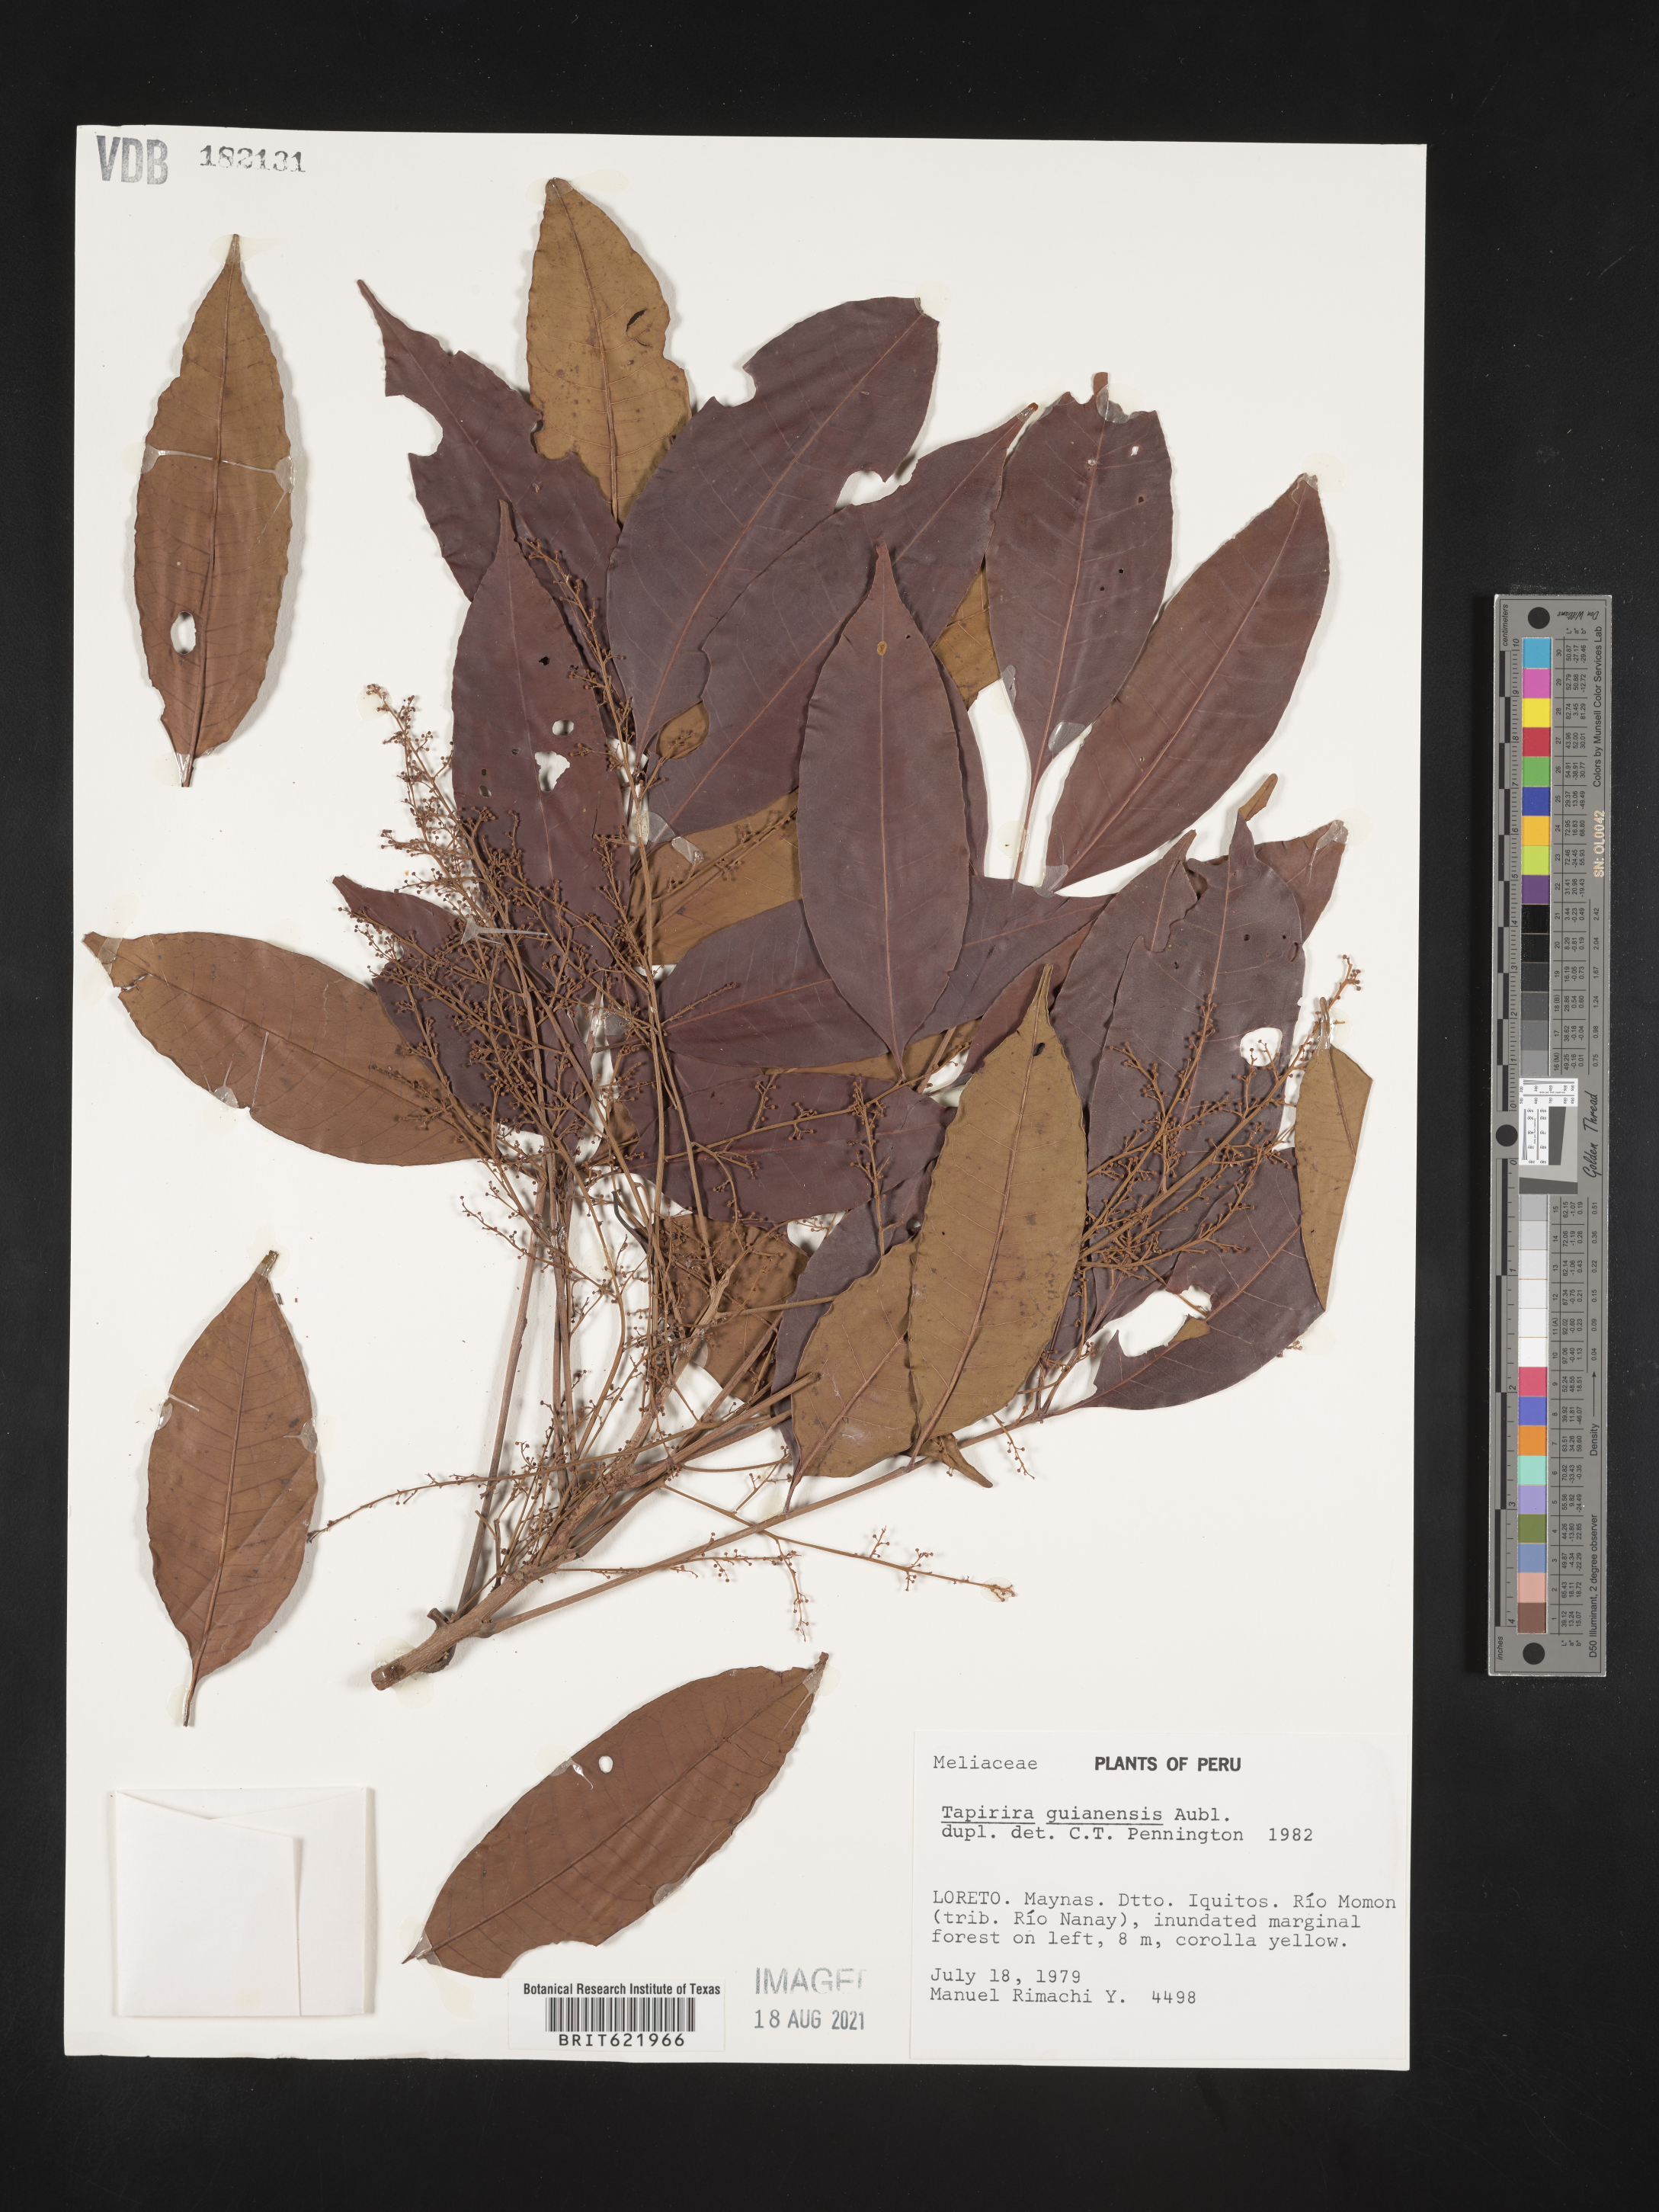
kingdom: Plantae
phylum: Tracheophyta
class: Magnoliopsida
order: Sapindales
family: Anacardiaceae
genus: Tapirira
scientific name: Tapirira guianensis
